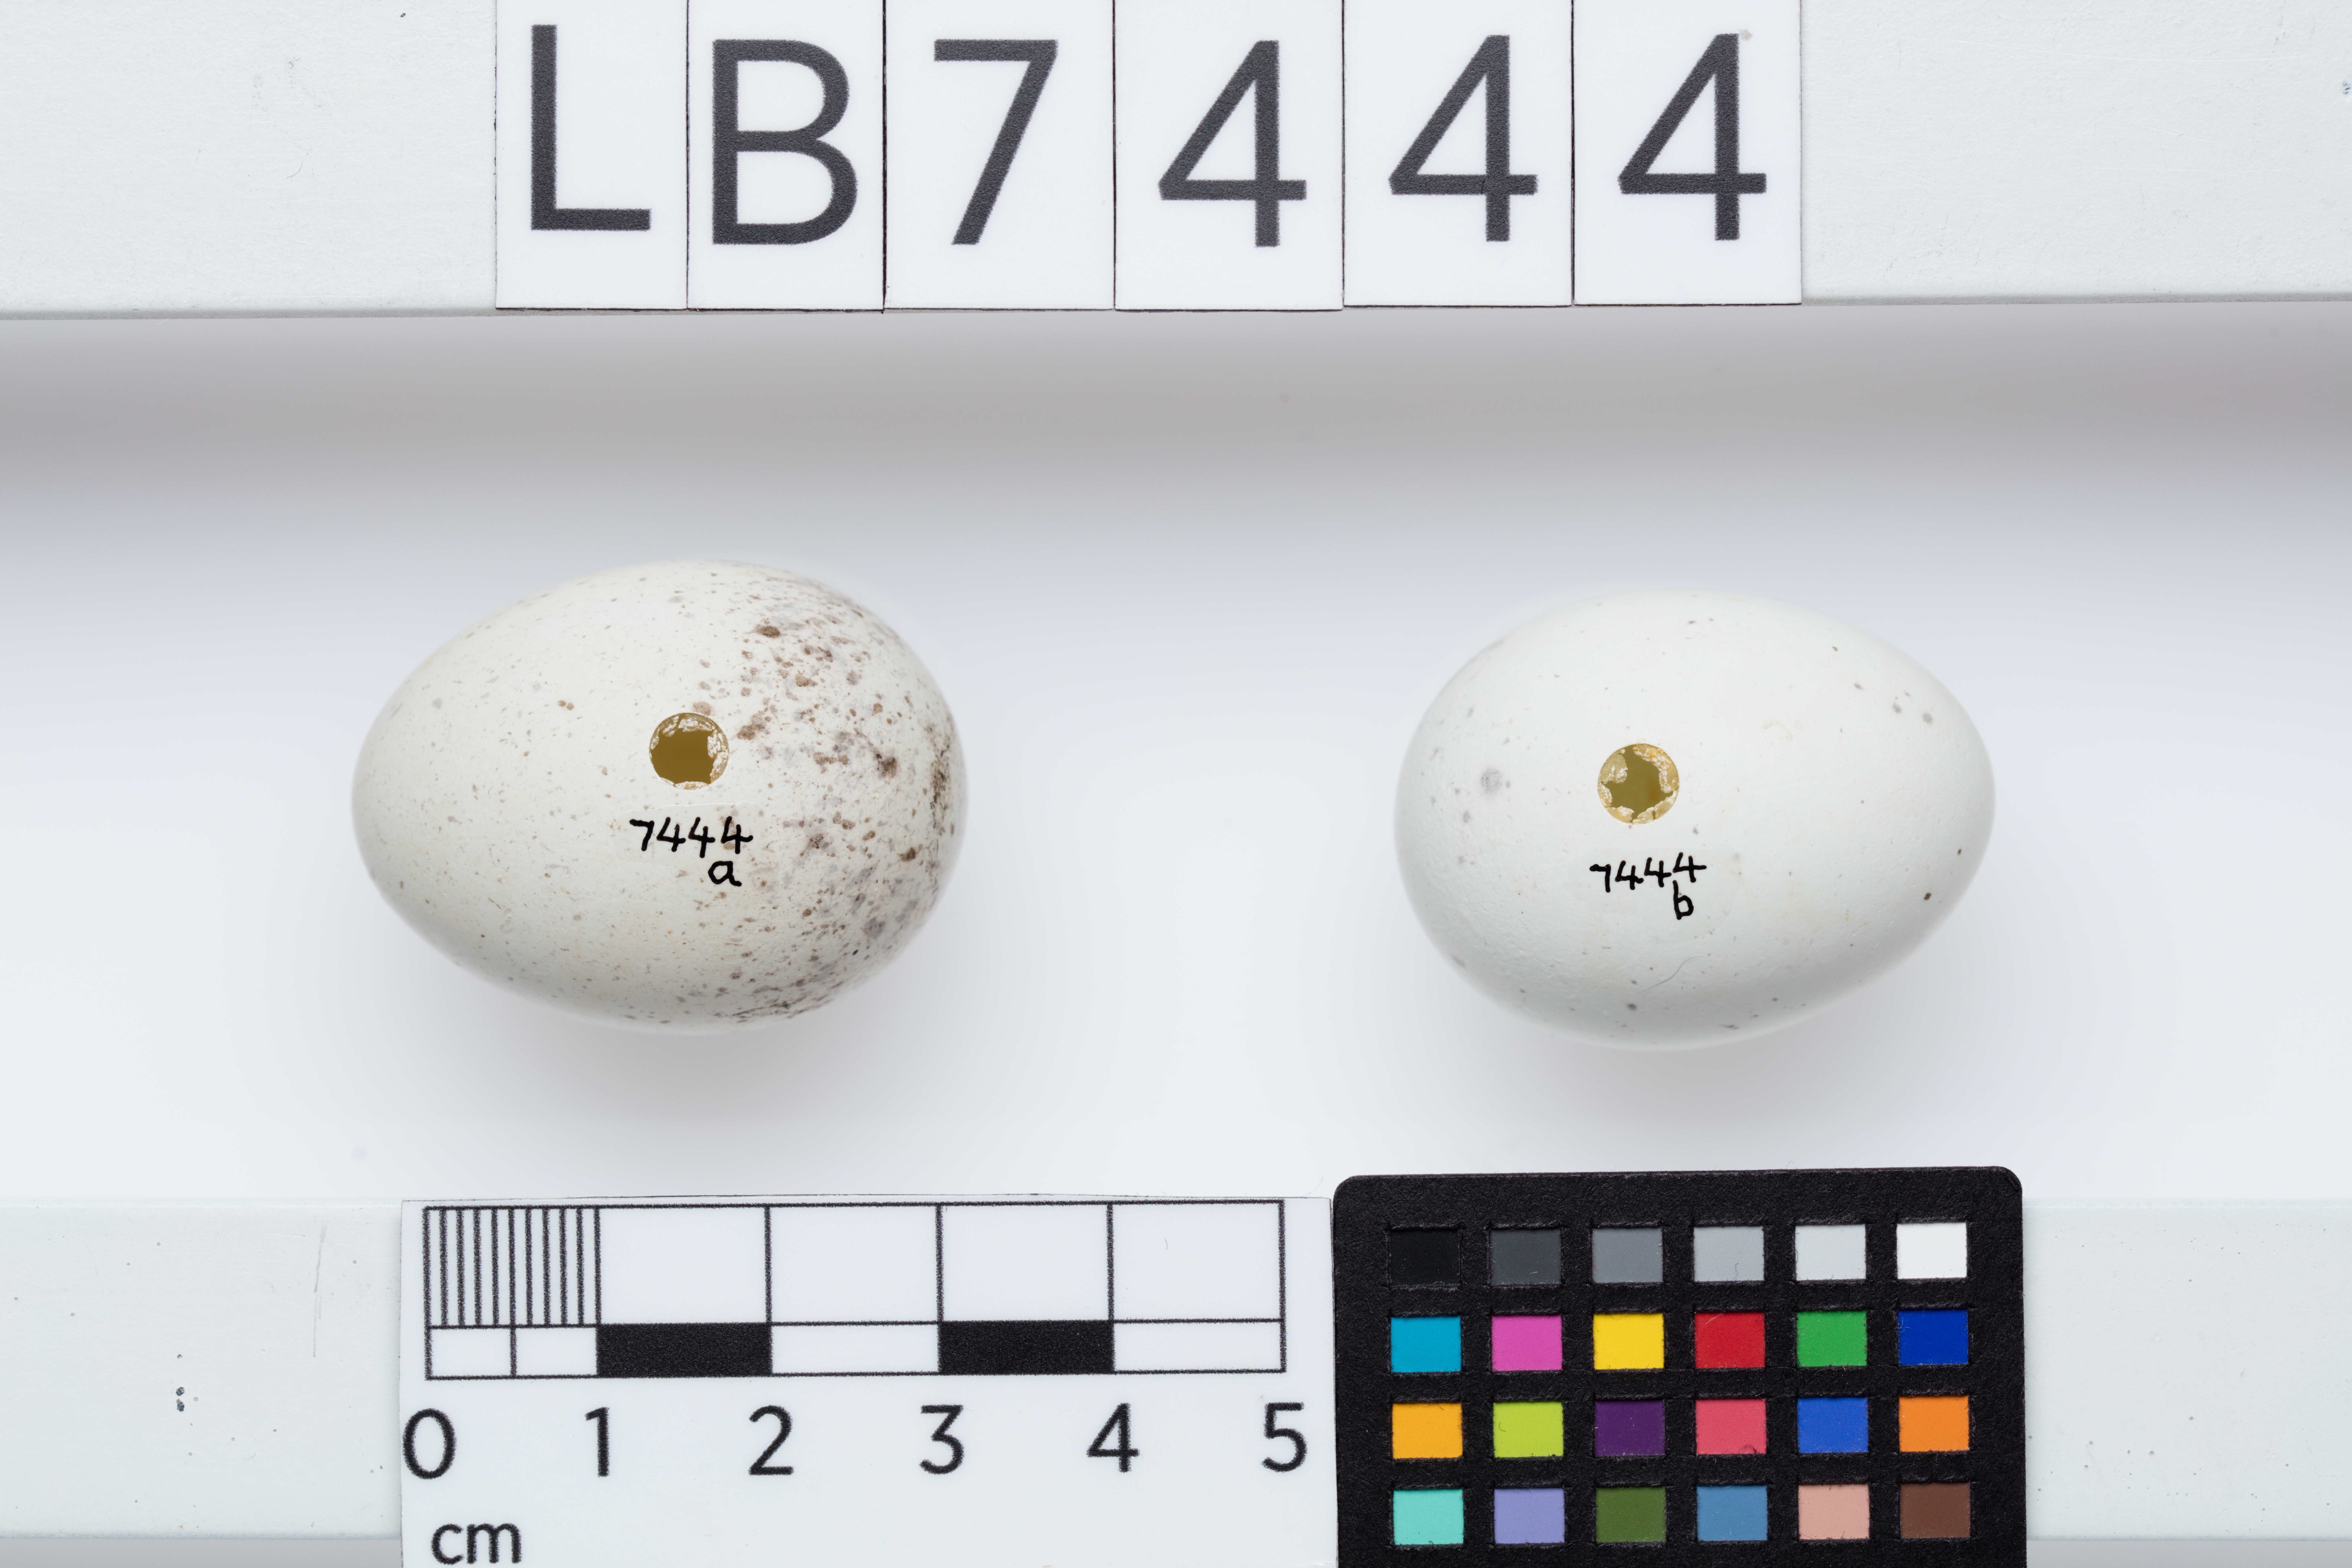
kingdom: Animalia
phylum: Chordata
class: Aves
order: Passeriformes
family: Callaeatidae
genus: Callaeas
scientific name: Callaeas cinereus
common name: South island kokako
